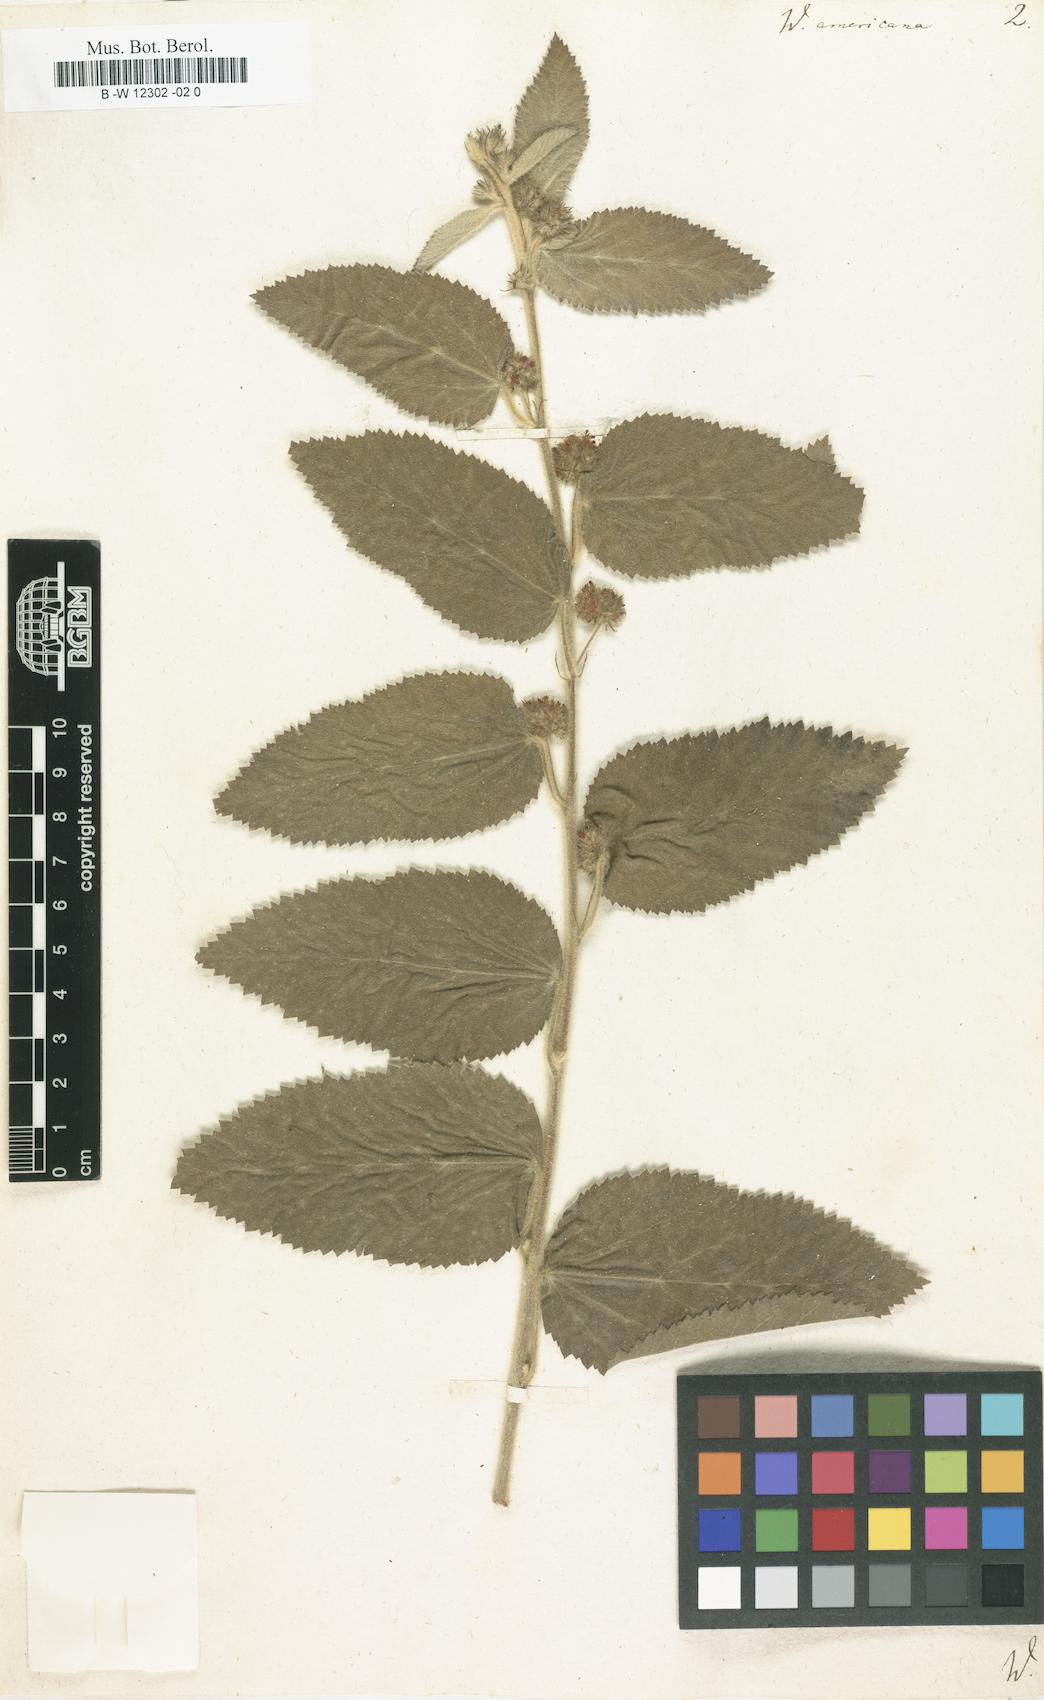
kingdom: Plantae
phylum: Tracheophyta
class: Magnoliopsida
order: Malvales
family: Malvaceae
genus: Waltheria
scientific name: Waltheria indica
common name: Leather-coat
